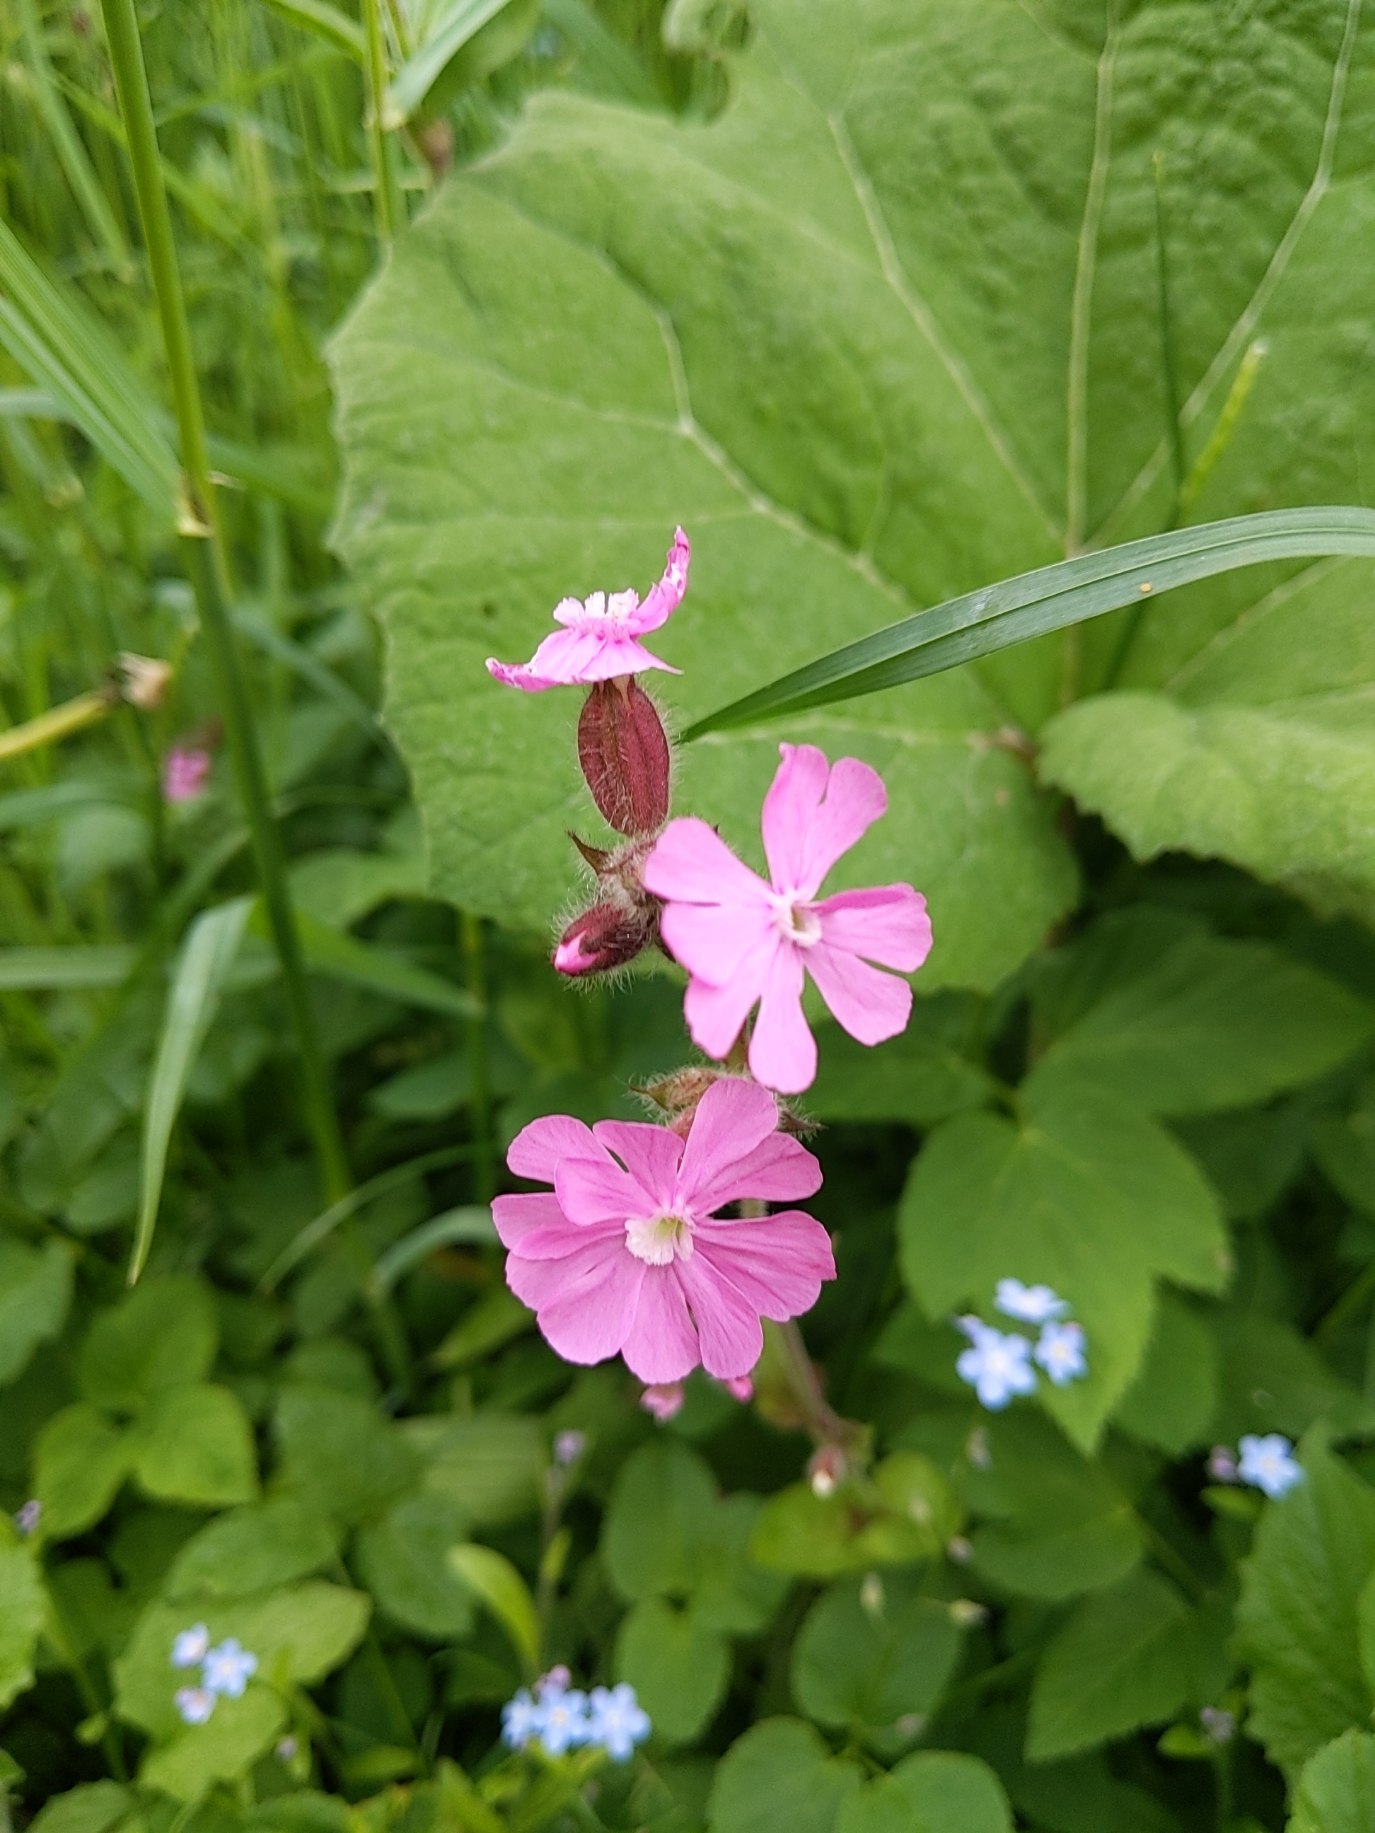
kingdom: Plantae
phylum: Tracheophyta
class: Magnoliopsida
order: Caryophyllales
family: Caryophyllaceae
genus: Silene
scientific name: Silene dioica
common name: Dagpragtstjerne
